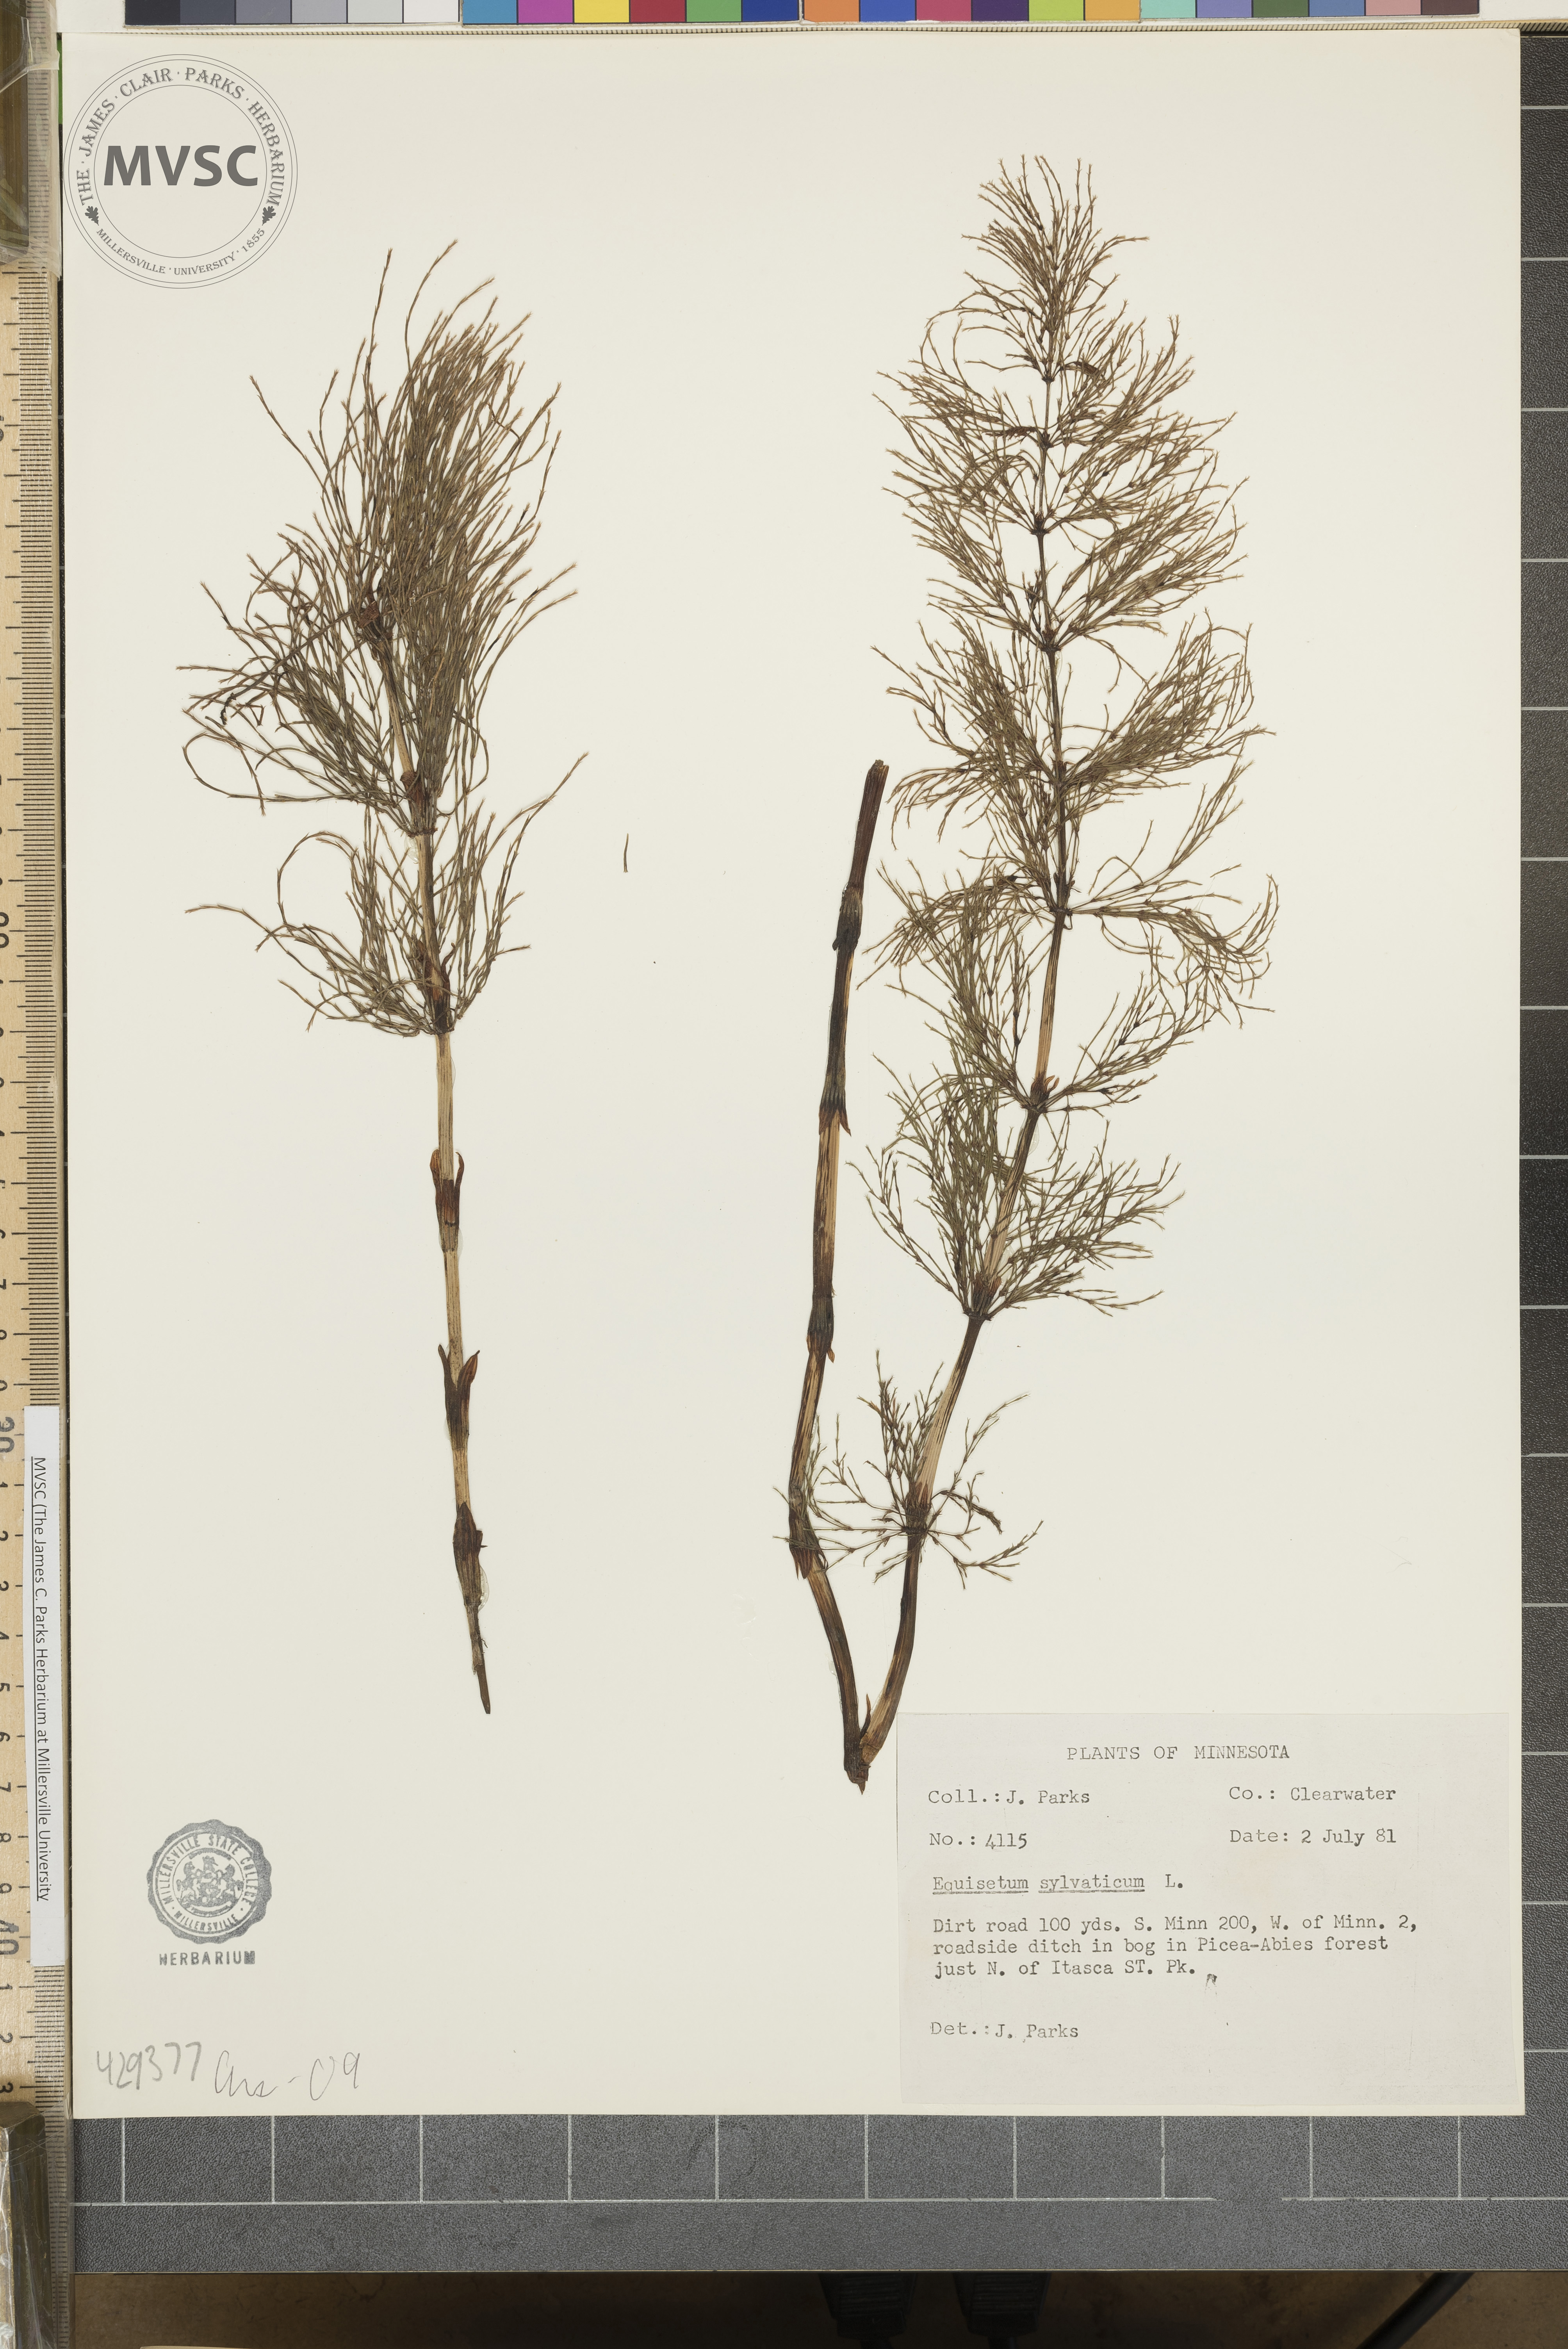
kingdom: Plantae
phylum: Tracheophyta
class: Polypodiopsida
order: Equisetales
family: Equisetaceae
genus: Equisetum
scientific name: Equisetum sylvaticum
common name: Wood horsetail
